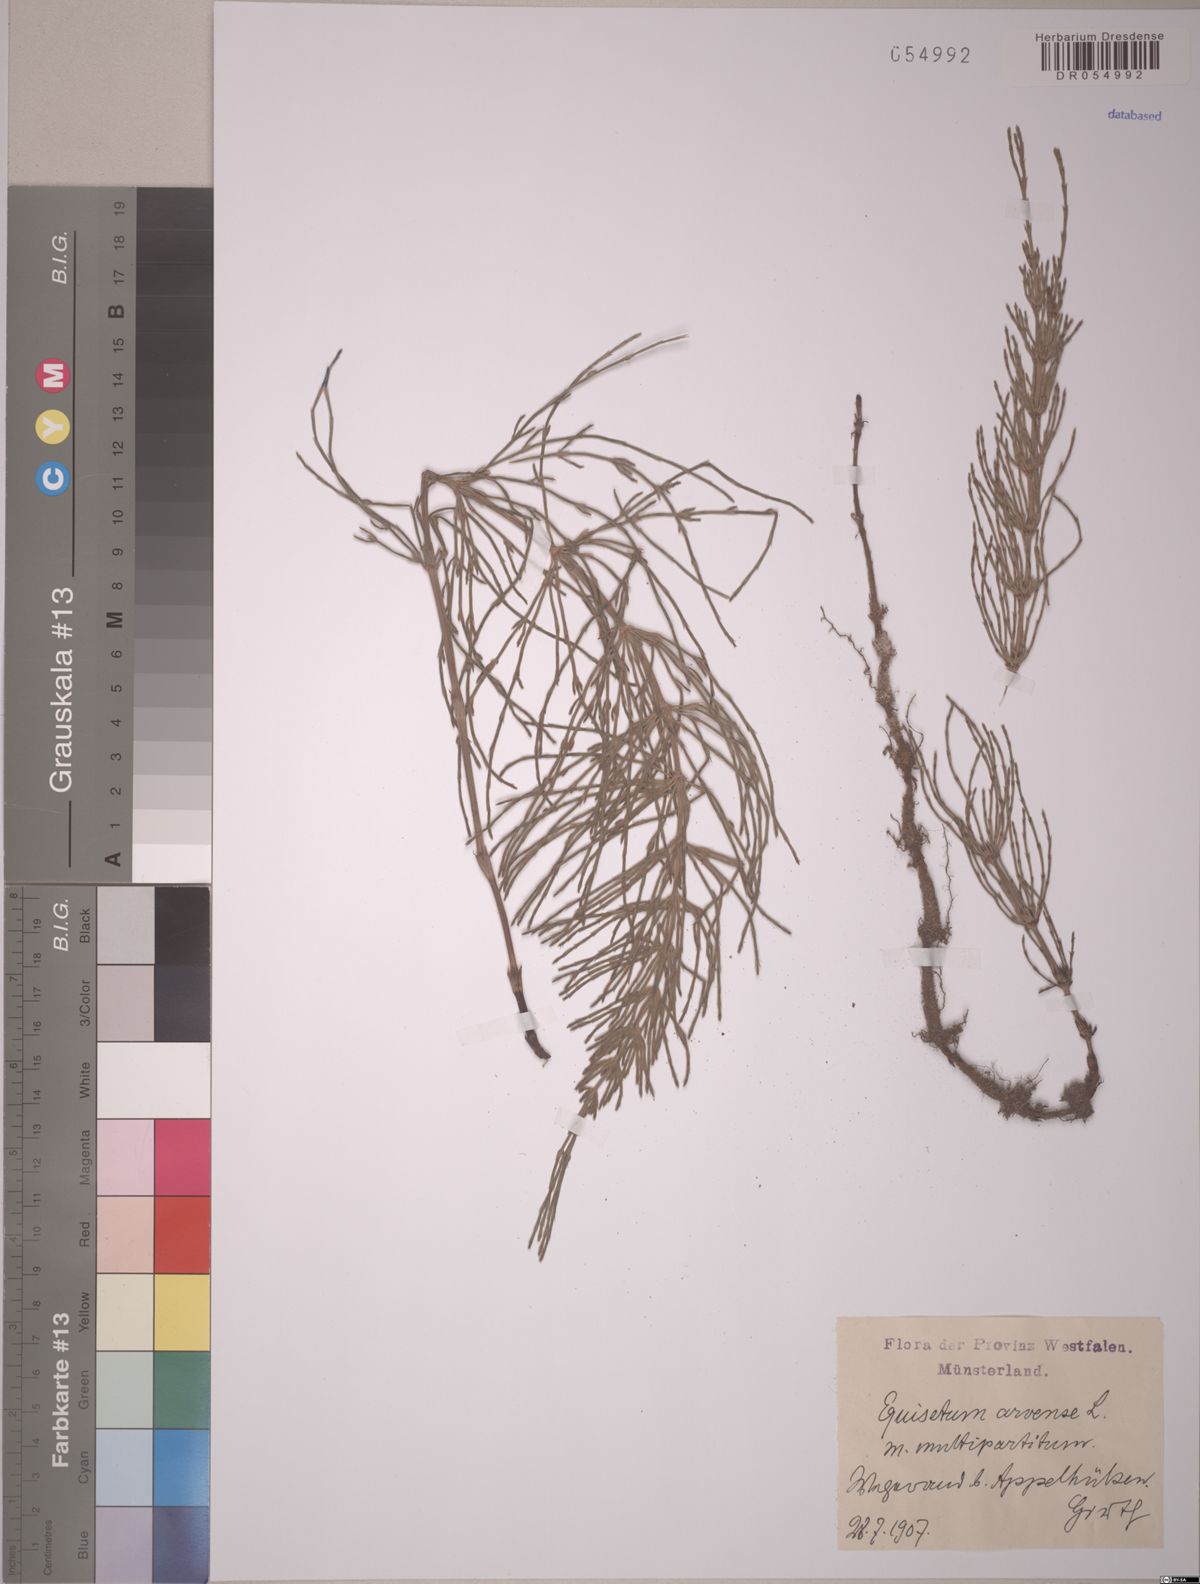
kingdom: Plantae
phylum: Tracheophyta
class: Polypodiopsida
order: Equisetales
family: Equisetaceae
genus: Equisetum
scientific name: Equisetum arvense
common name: Field horsetail
